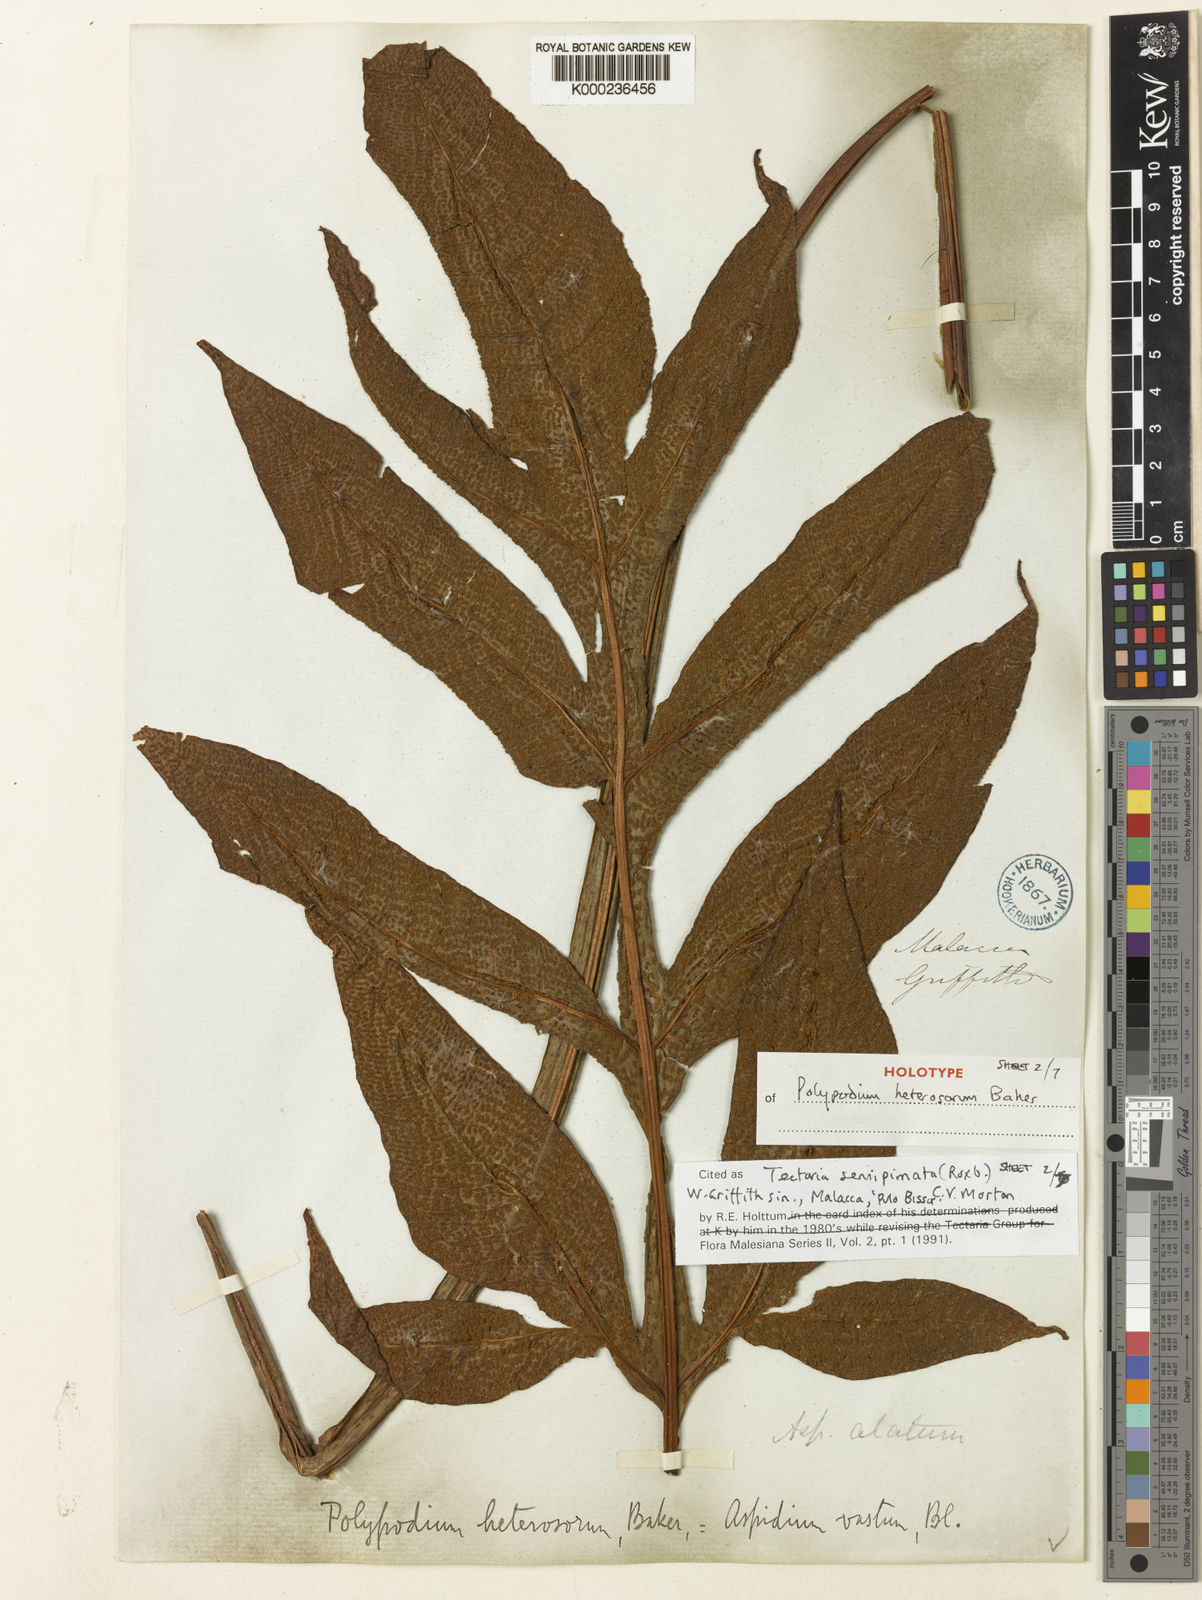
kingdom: Plantae
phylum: Tracheophyta
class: Polypodiopsida
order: Polypodiales
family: Tectariaceae
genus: Tectaria
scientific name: Tectaria semipinnata
